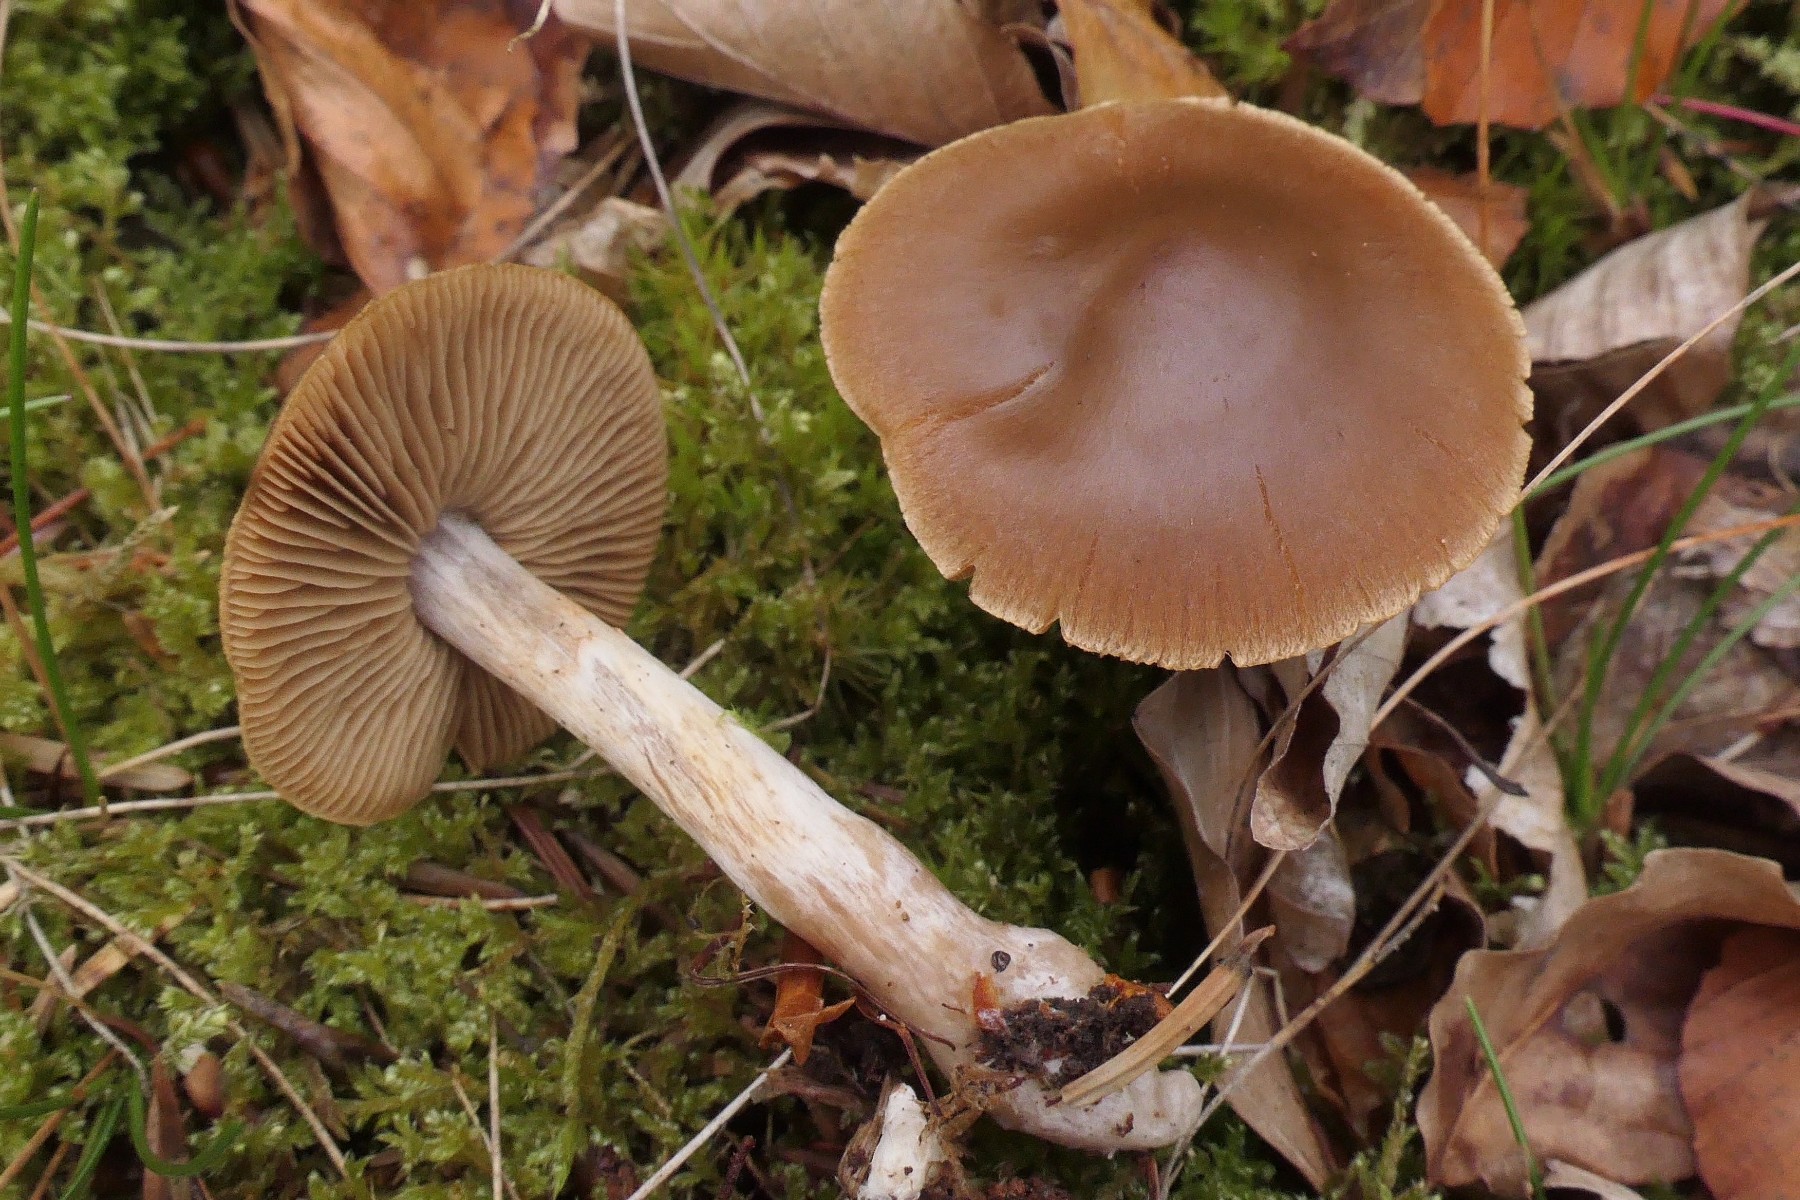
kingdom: Fungi
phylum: Basidiomycota
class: Agaricomycetes
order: Agaricales
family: Cortinariaceae
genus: Cortinarius
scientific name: Cortinarius kauffmanianus
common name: plantage-slørhat
